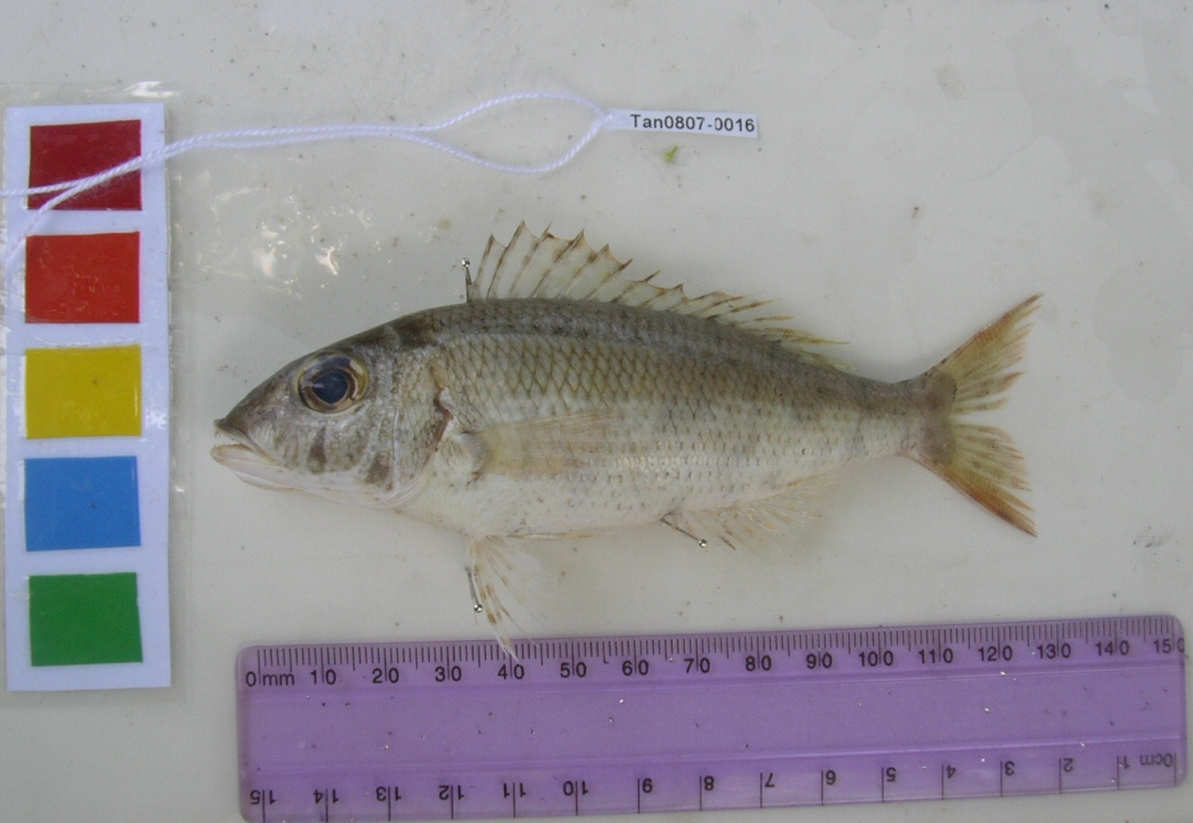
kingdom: Animalia
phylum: Chordata
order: Perciformes
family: Lethrinidae
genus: Lethrinus
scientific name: Lethrinus variegatus
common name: Variegated emperor
